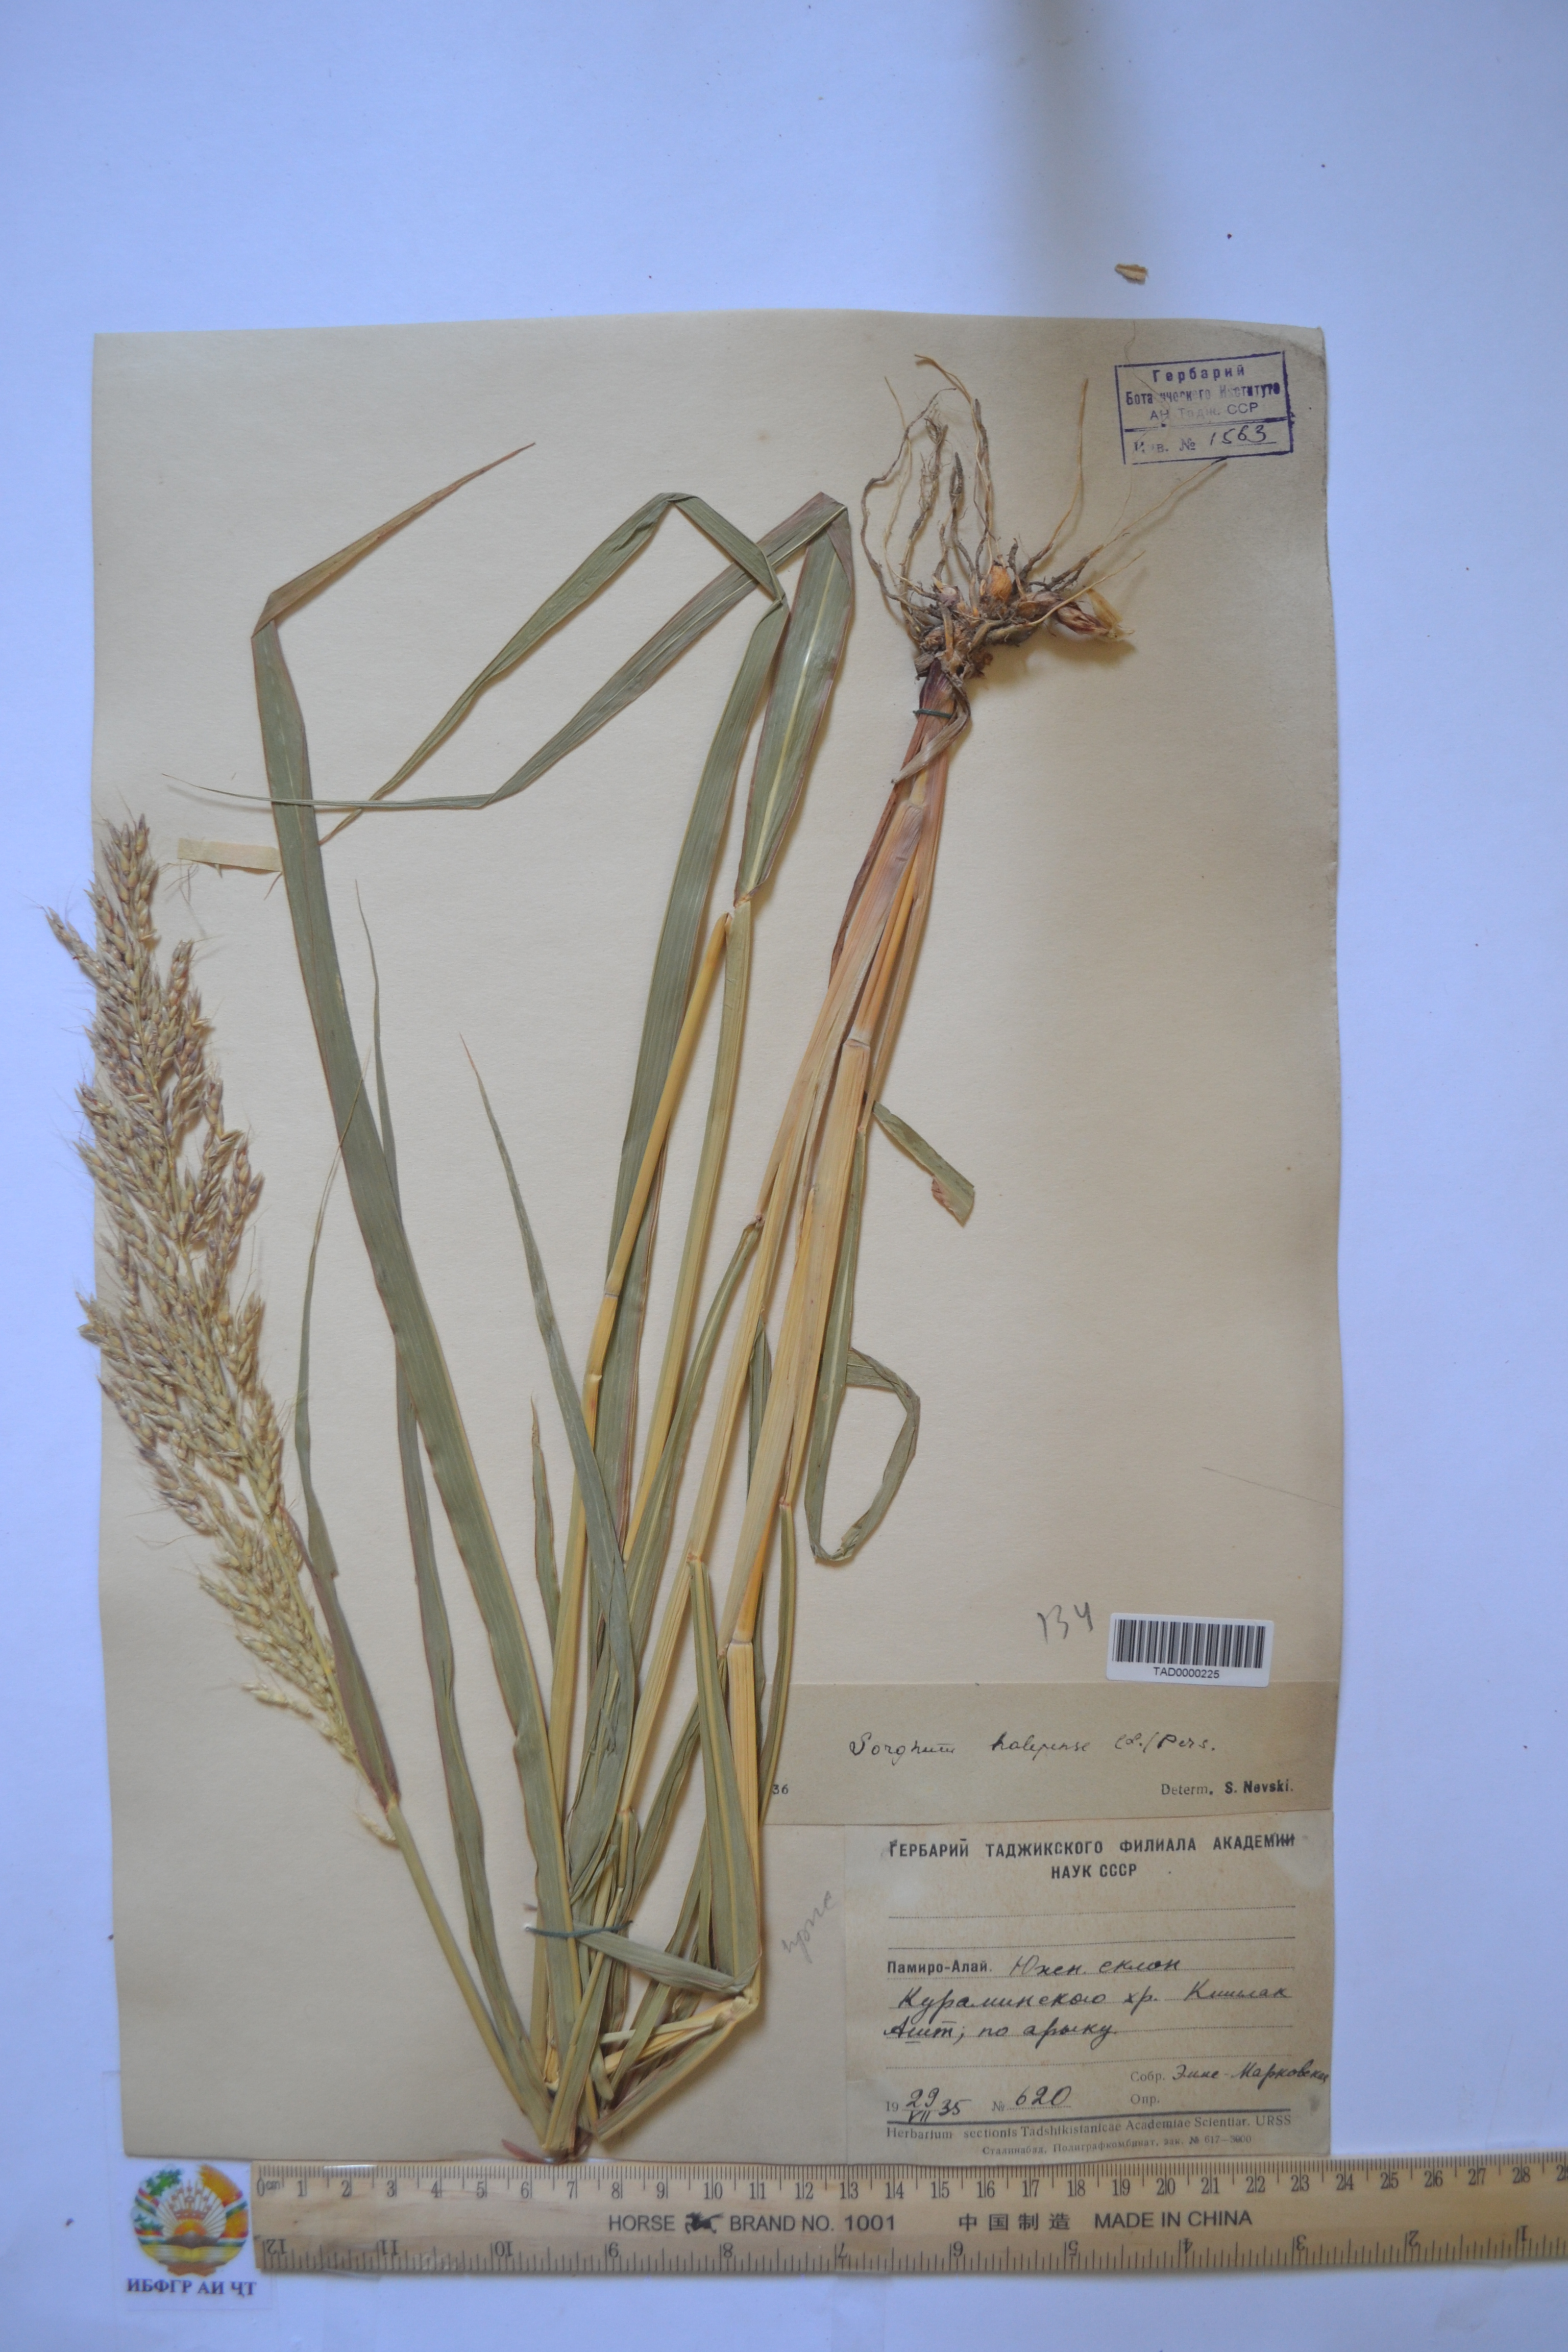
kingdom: Plantae
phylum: Tracheophyta
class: Liliopsida
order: Poales
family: Poaceae
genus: Sorghum
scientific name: Sorghum halepense
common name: Johnson-grass
